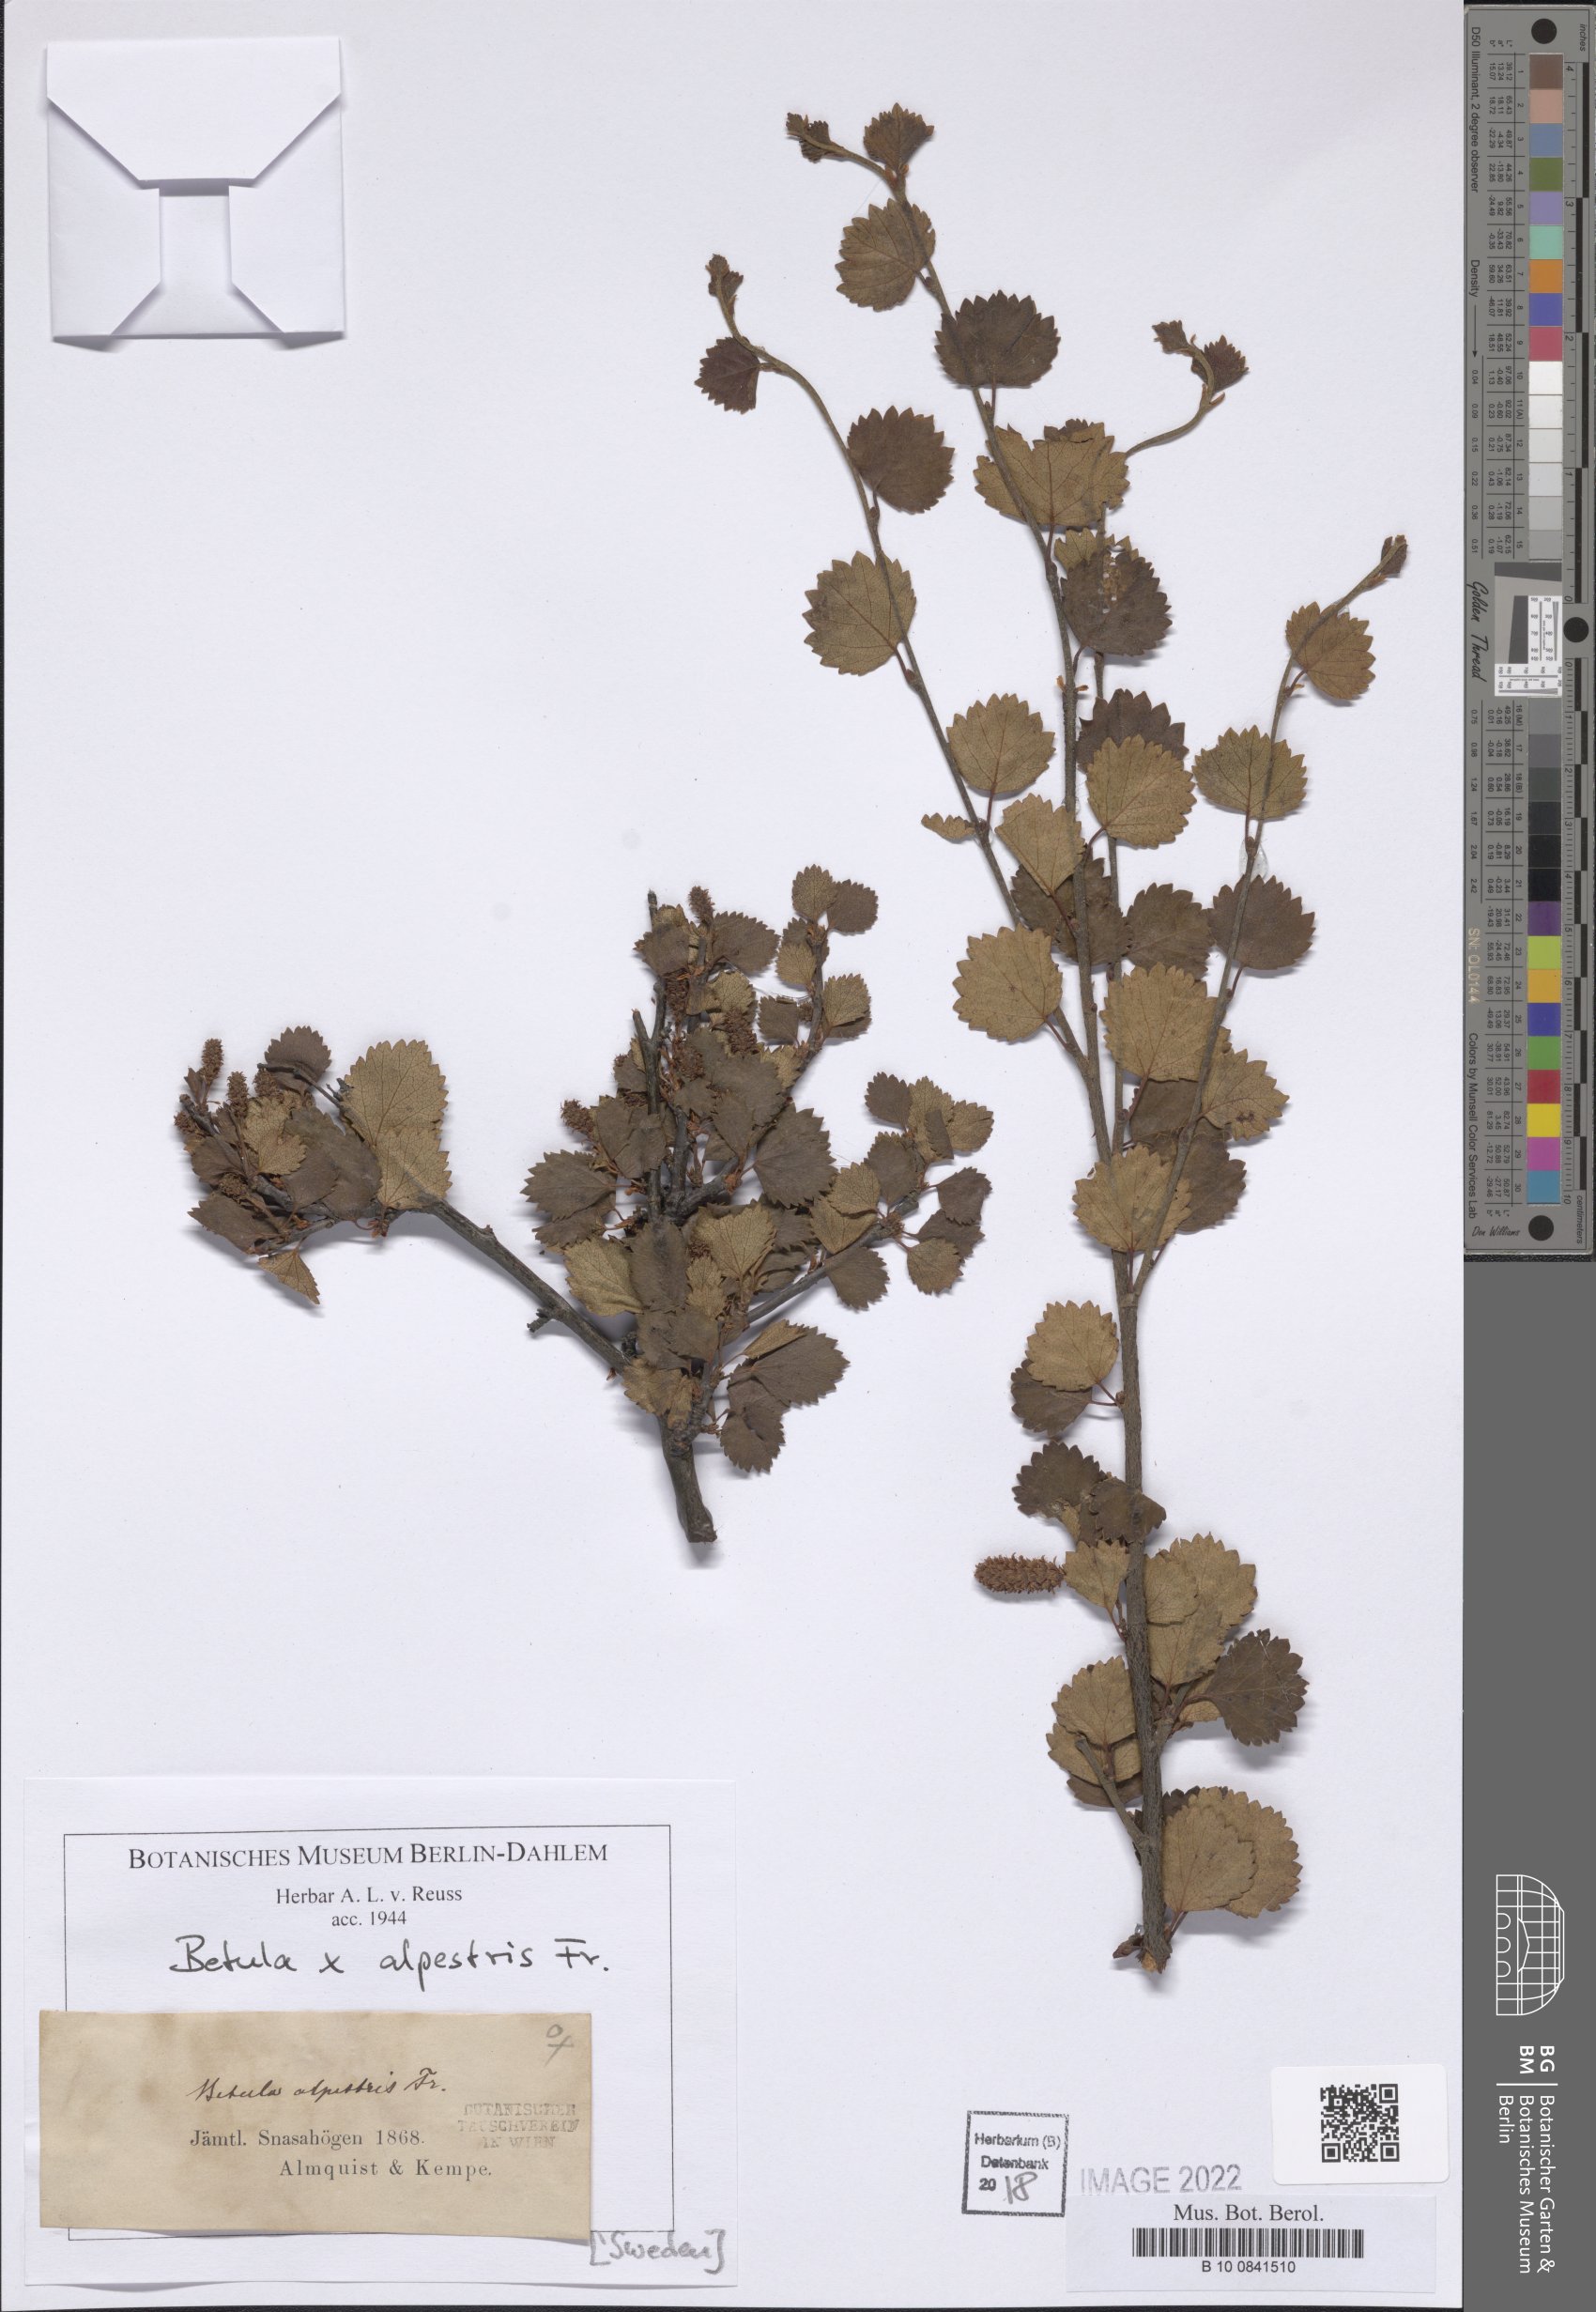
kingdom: Plantae
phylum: Tracheophyta
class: Magnoliopsida
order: Fagales
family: Betulaceae
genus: Betula
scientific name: Betula intermedia
